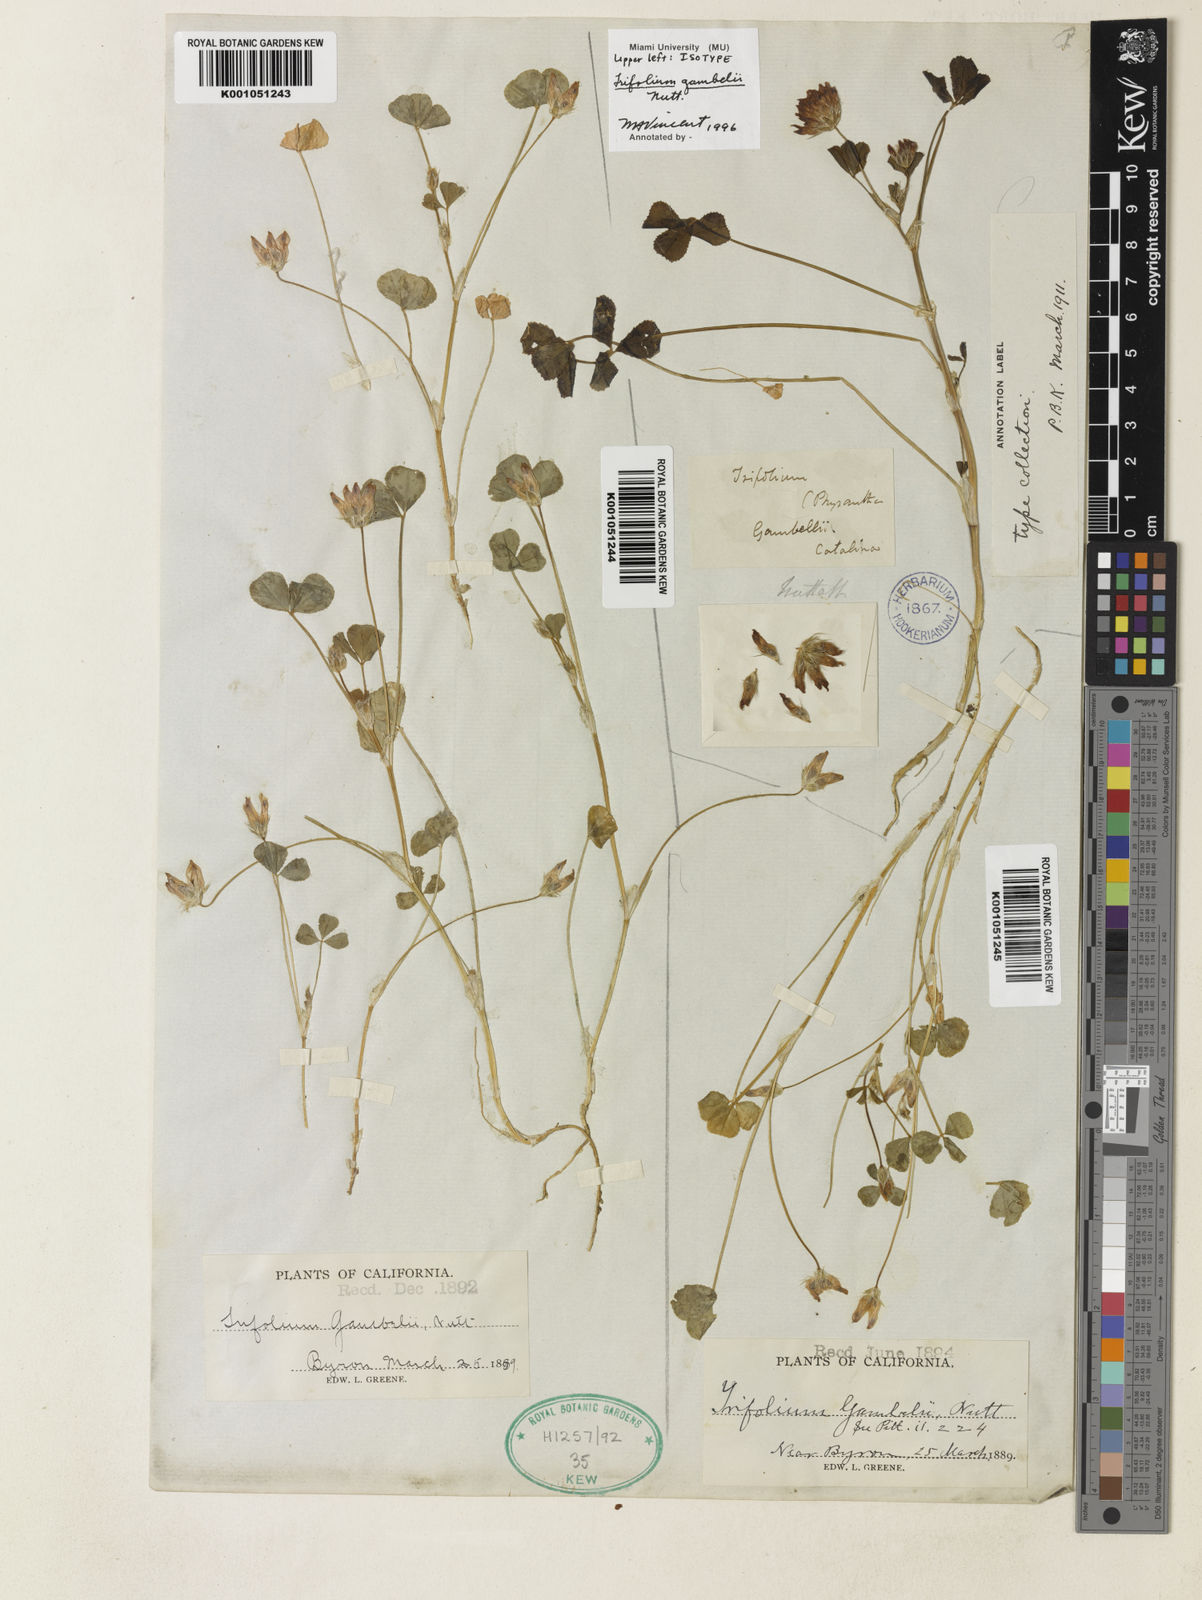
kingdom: Plantae
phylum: Tracheophyta
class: Magnoliopsida
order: Fabales
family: Fabaceae
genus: Trifolium
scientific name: Trifolium fucatum
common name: Puff clover
